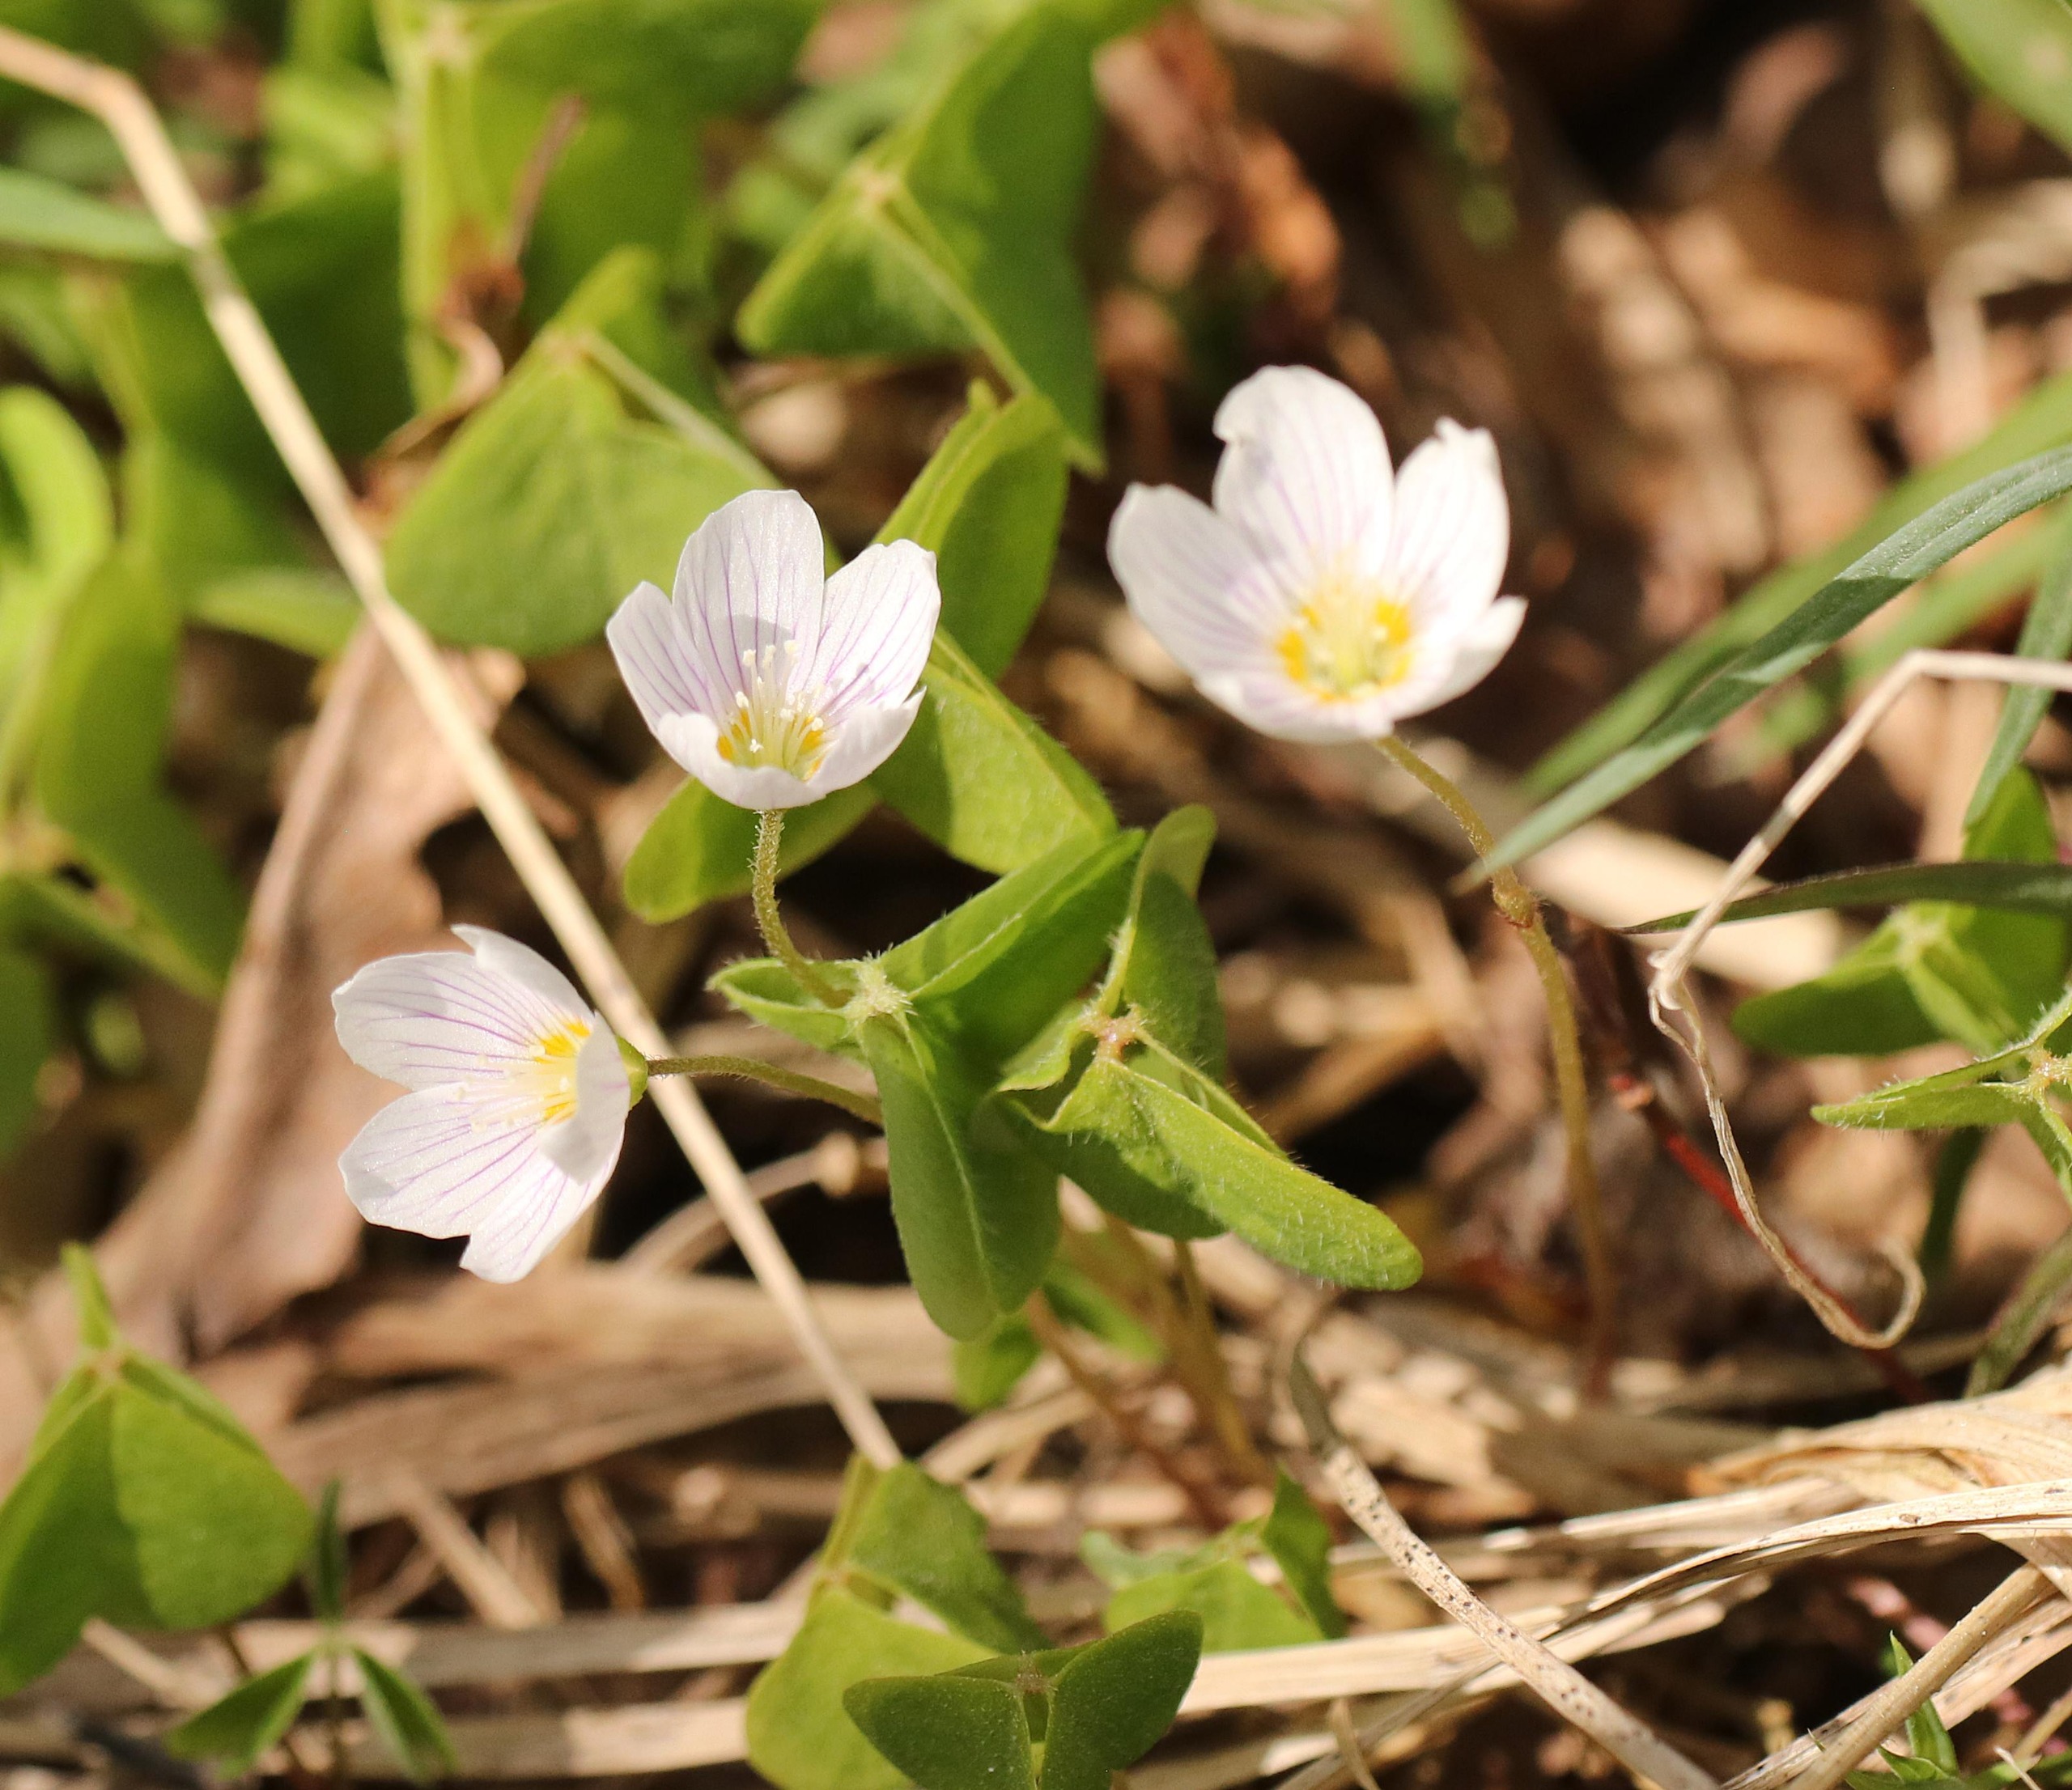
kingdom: Plantae
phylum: Tracheophyta
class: Magnoliopsida
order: Oxalidales
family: Oxalidaceae
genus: Oxalis
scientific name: Oxalis acetosella
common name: Skovsyre
